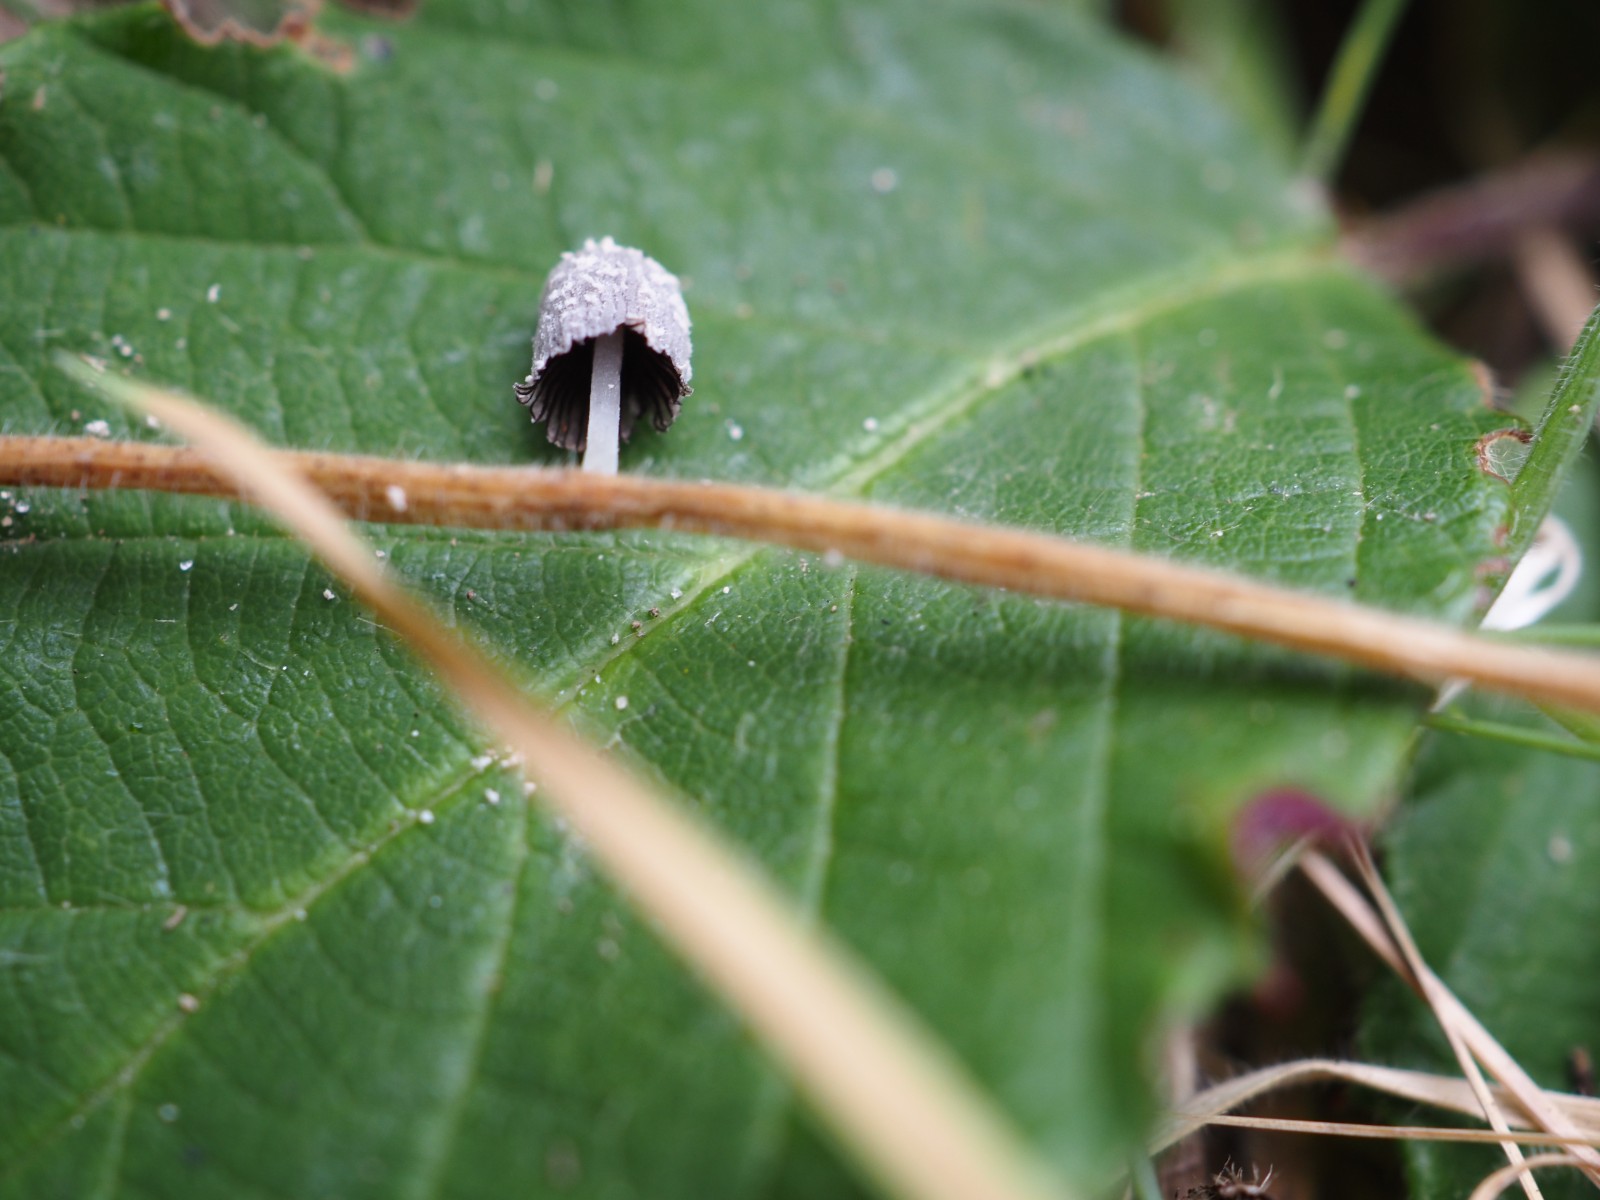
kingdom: Fungi
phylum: Basidiomycota
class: Agaricomycetes
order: Agaricales
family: Psathyrellaceae
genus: Coprinopsis
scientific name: Coprinopsis friesii
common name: græs-blækhat
